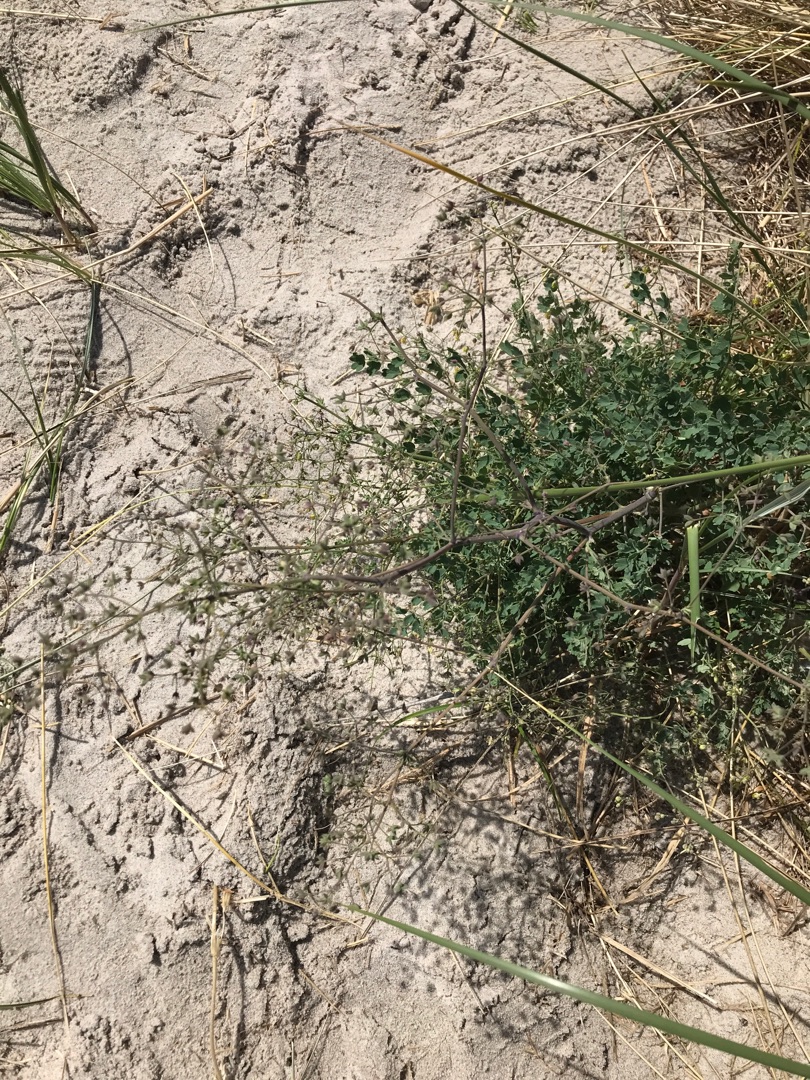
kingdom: Plantae
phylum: Tracheophyta
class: Magnoliopsida
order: Ranunculales
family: Ranunculaceae
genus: Thalictrum
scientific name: Thalictrum minus
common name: Liden frøstjerne
